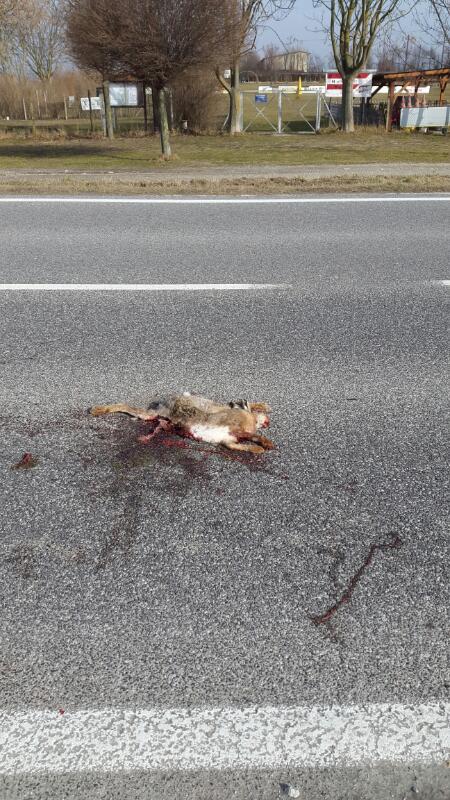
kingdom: Animalia
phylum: Chordata
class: Mammalia
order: Lagomorpha
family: Leporidae
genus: Lepus
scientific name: Lepus europaeus
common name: European hare
